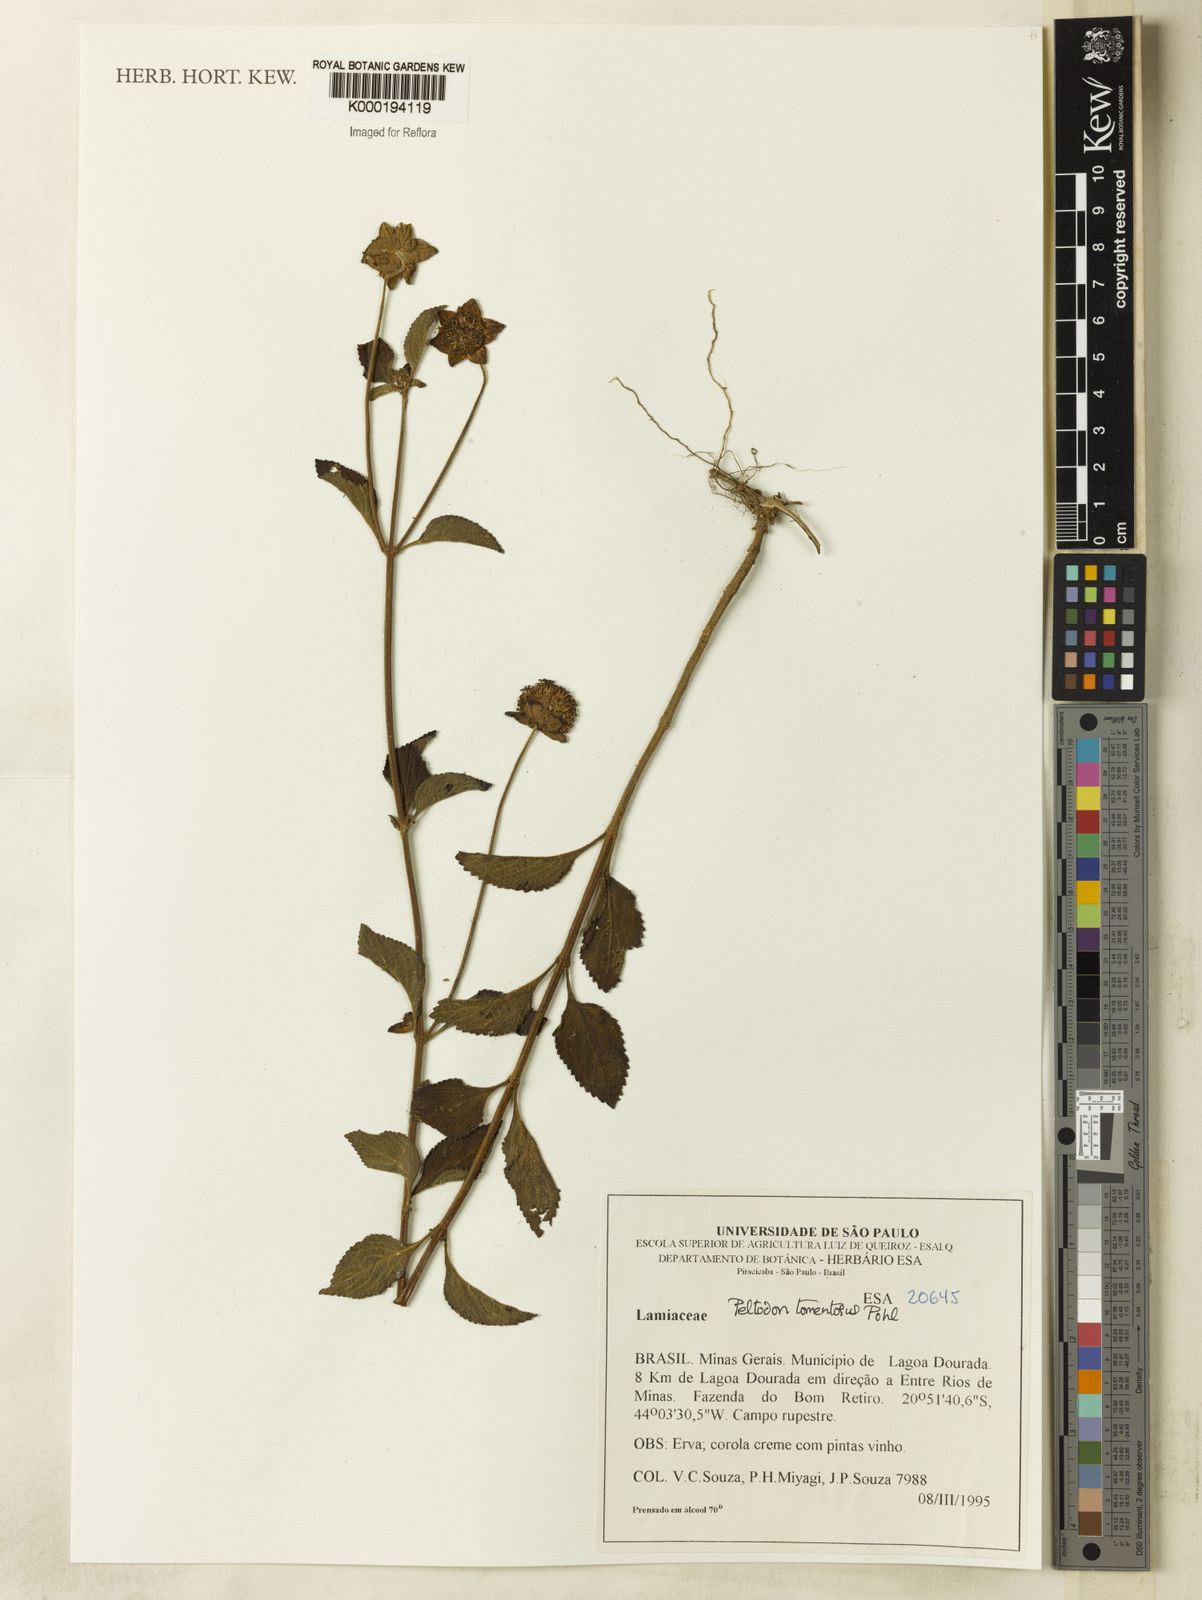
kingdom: Plantae
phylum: Tracheophyta
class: Magnoliopsida
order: Lamiales
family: Lamiaceae
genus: Hyptis
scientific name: Hyptis campestris
